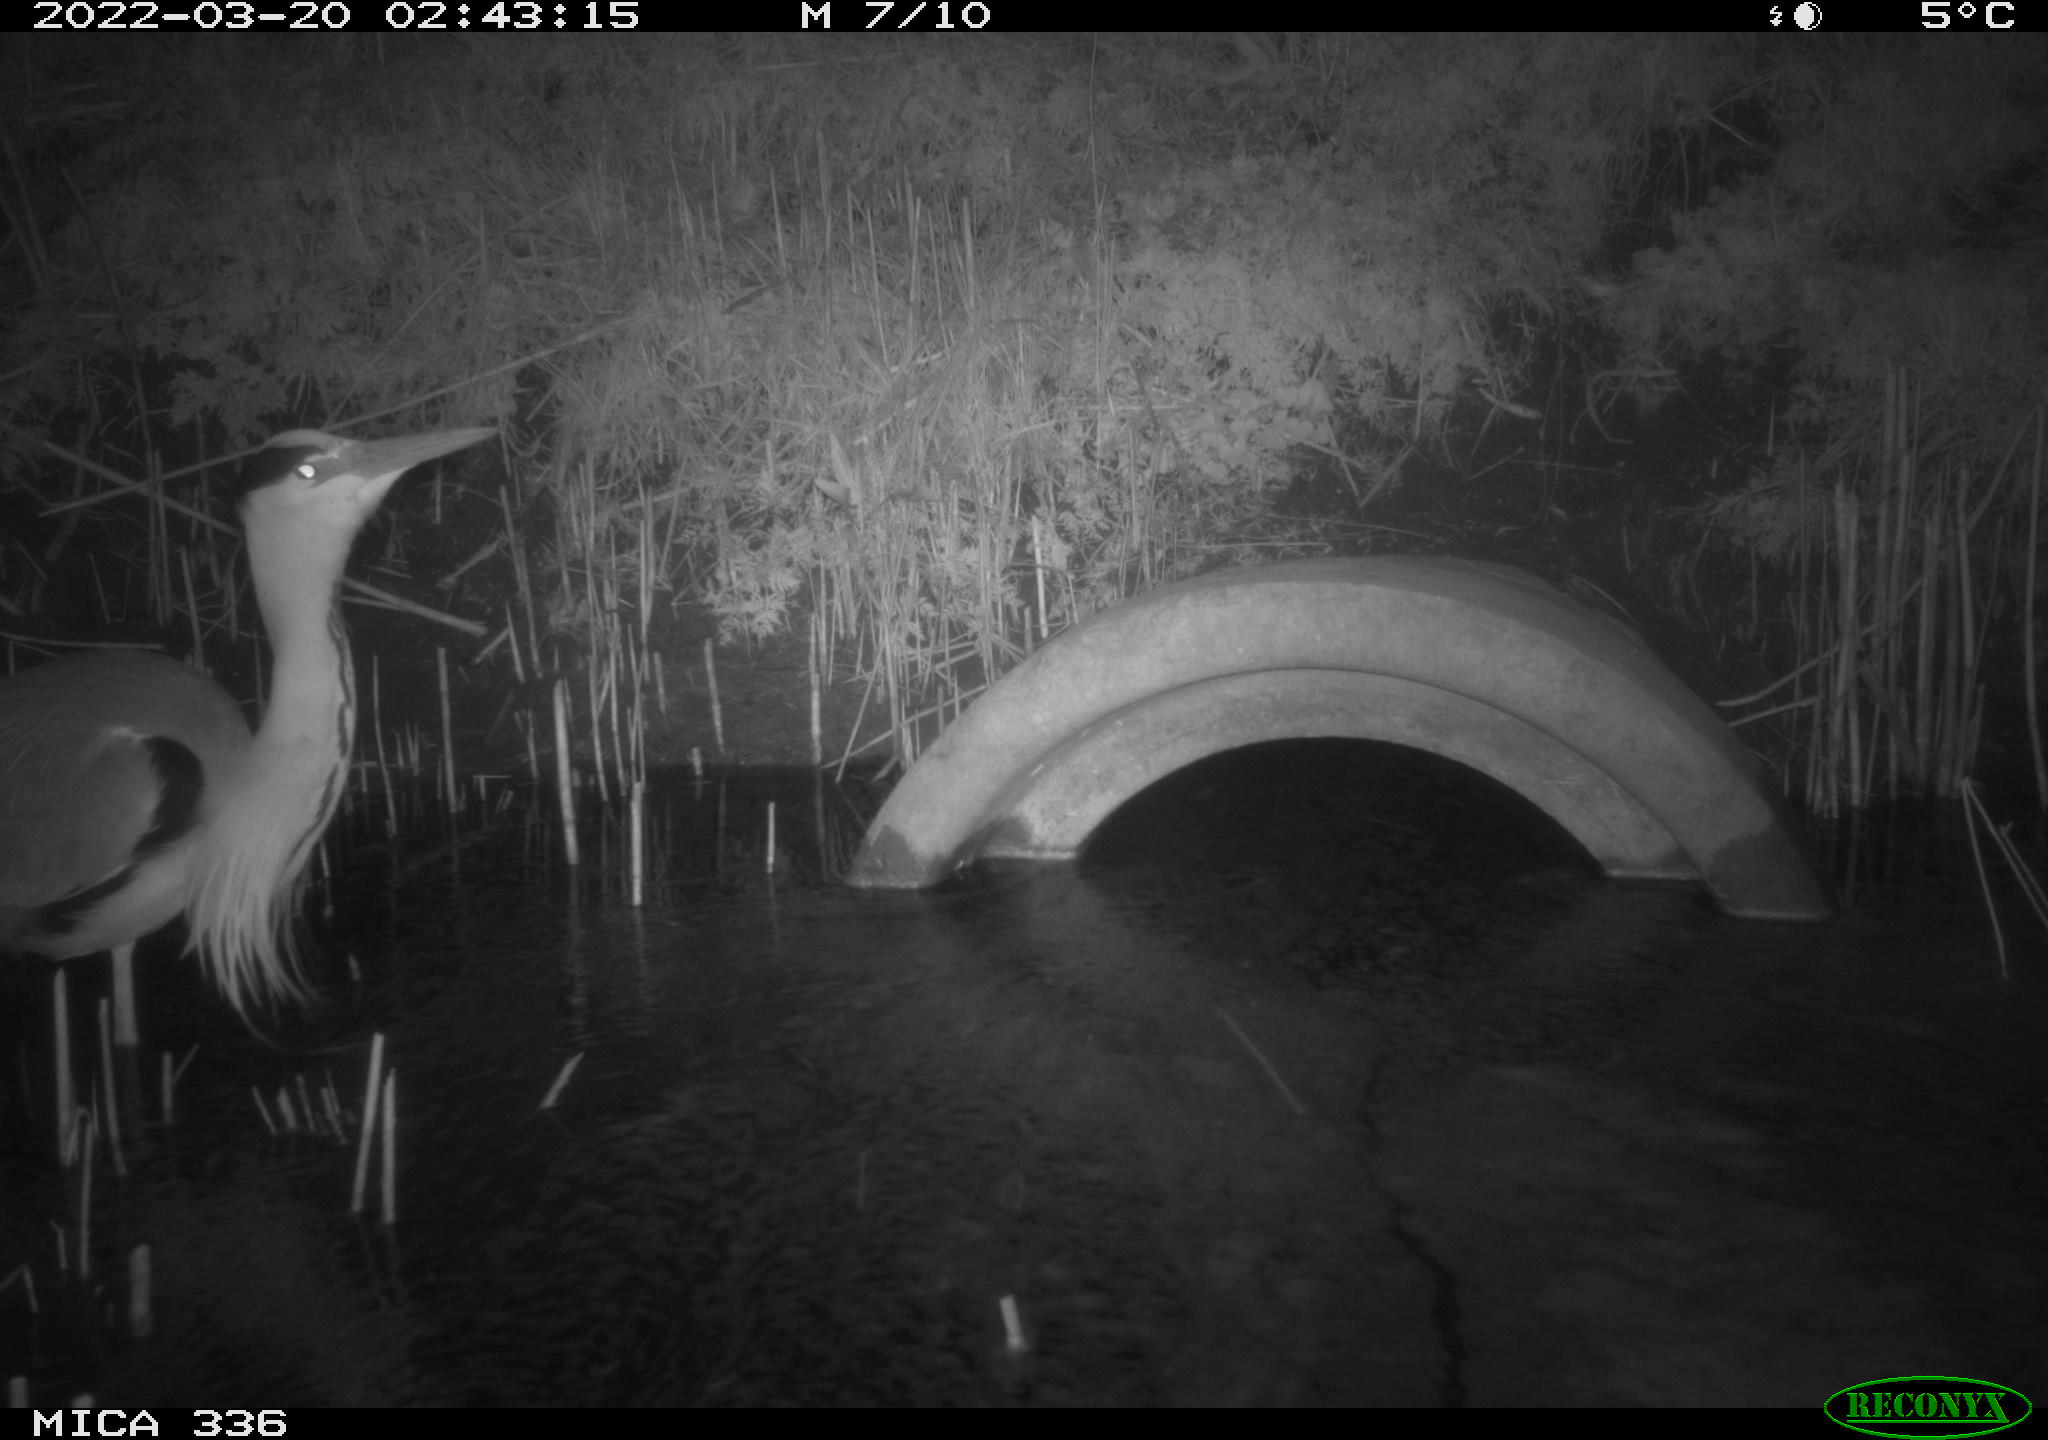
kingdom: Animalia
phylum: Chordata
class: Aves
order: Pelecaniformes
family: Ardeidae
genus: Ardea
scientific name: Ardea cinerea
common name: Grey heron
